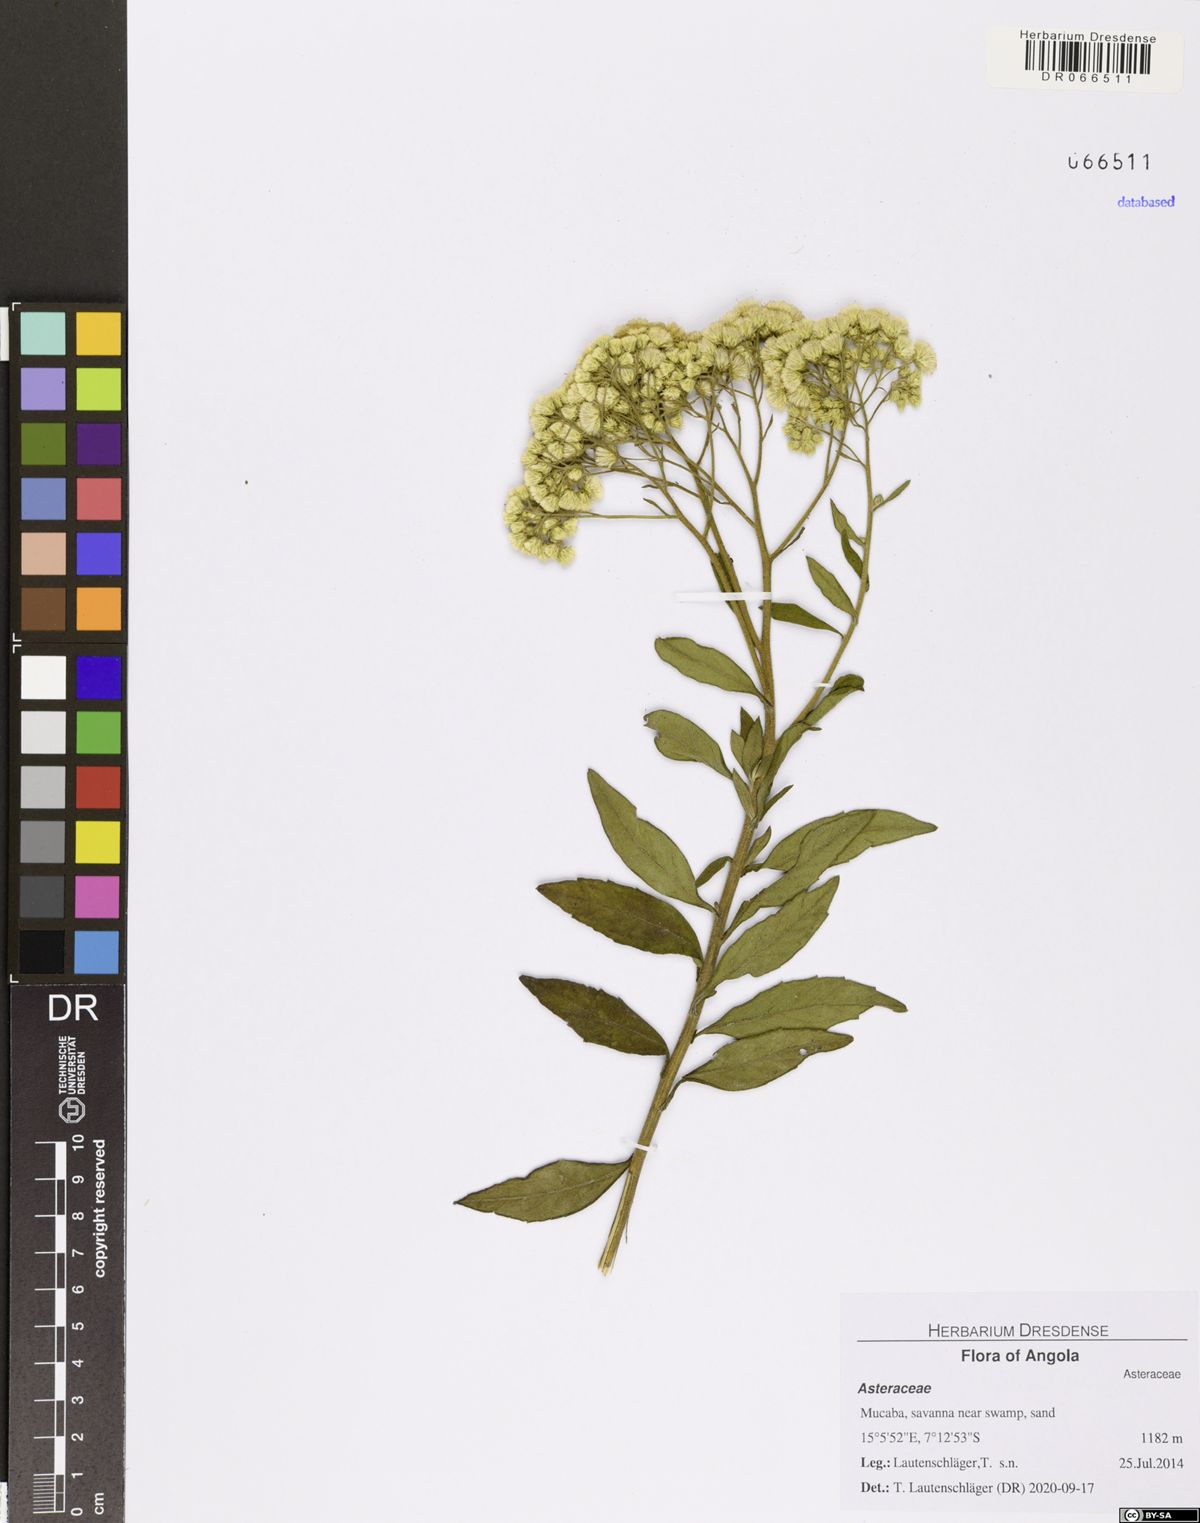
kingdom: Plantae
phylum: Tracheophyta
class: Magnoliopsida
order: Asterales
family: Asteraceae
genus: Microglossa
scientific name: Microglossa pyrrhopappa
